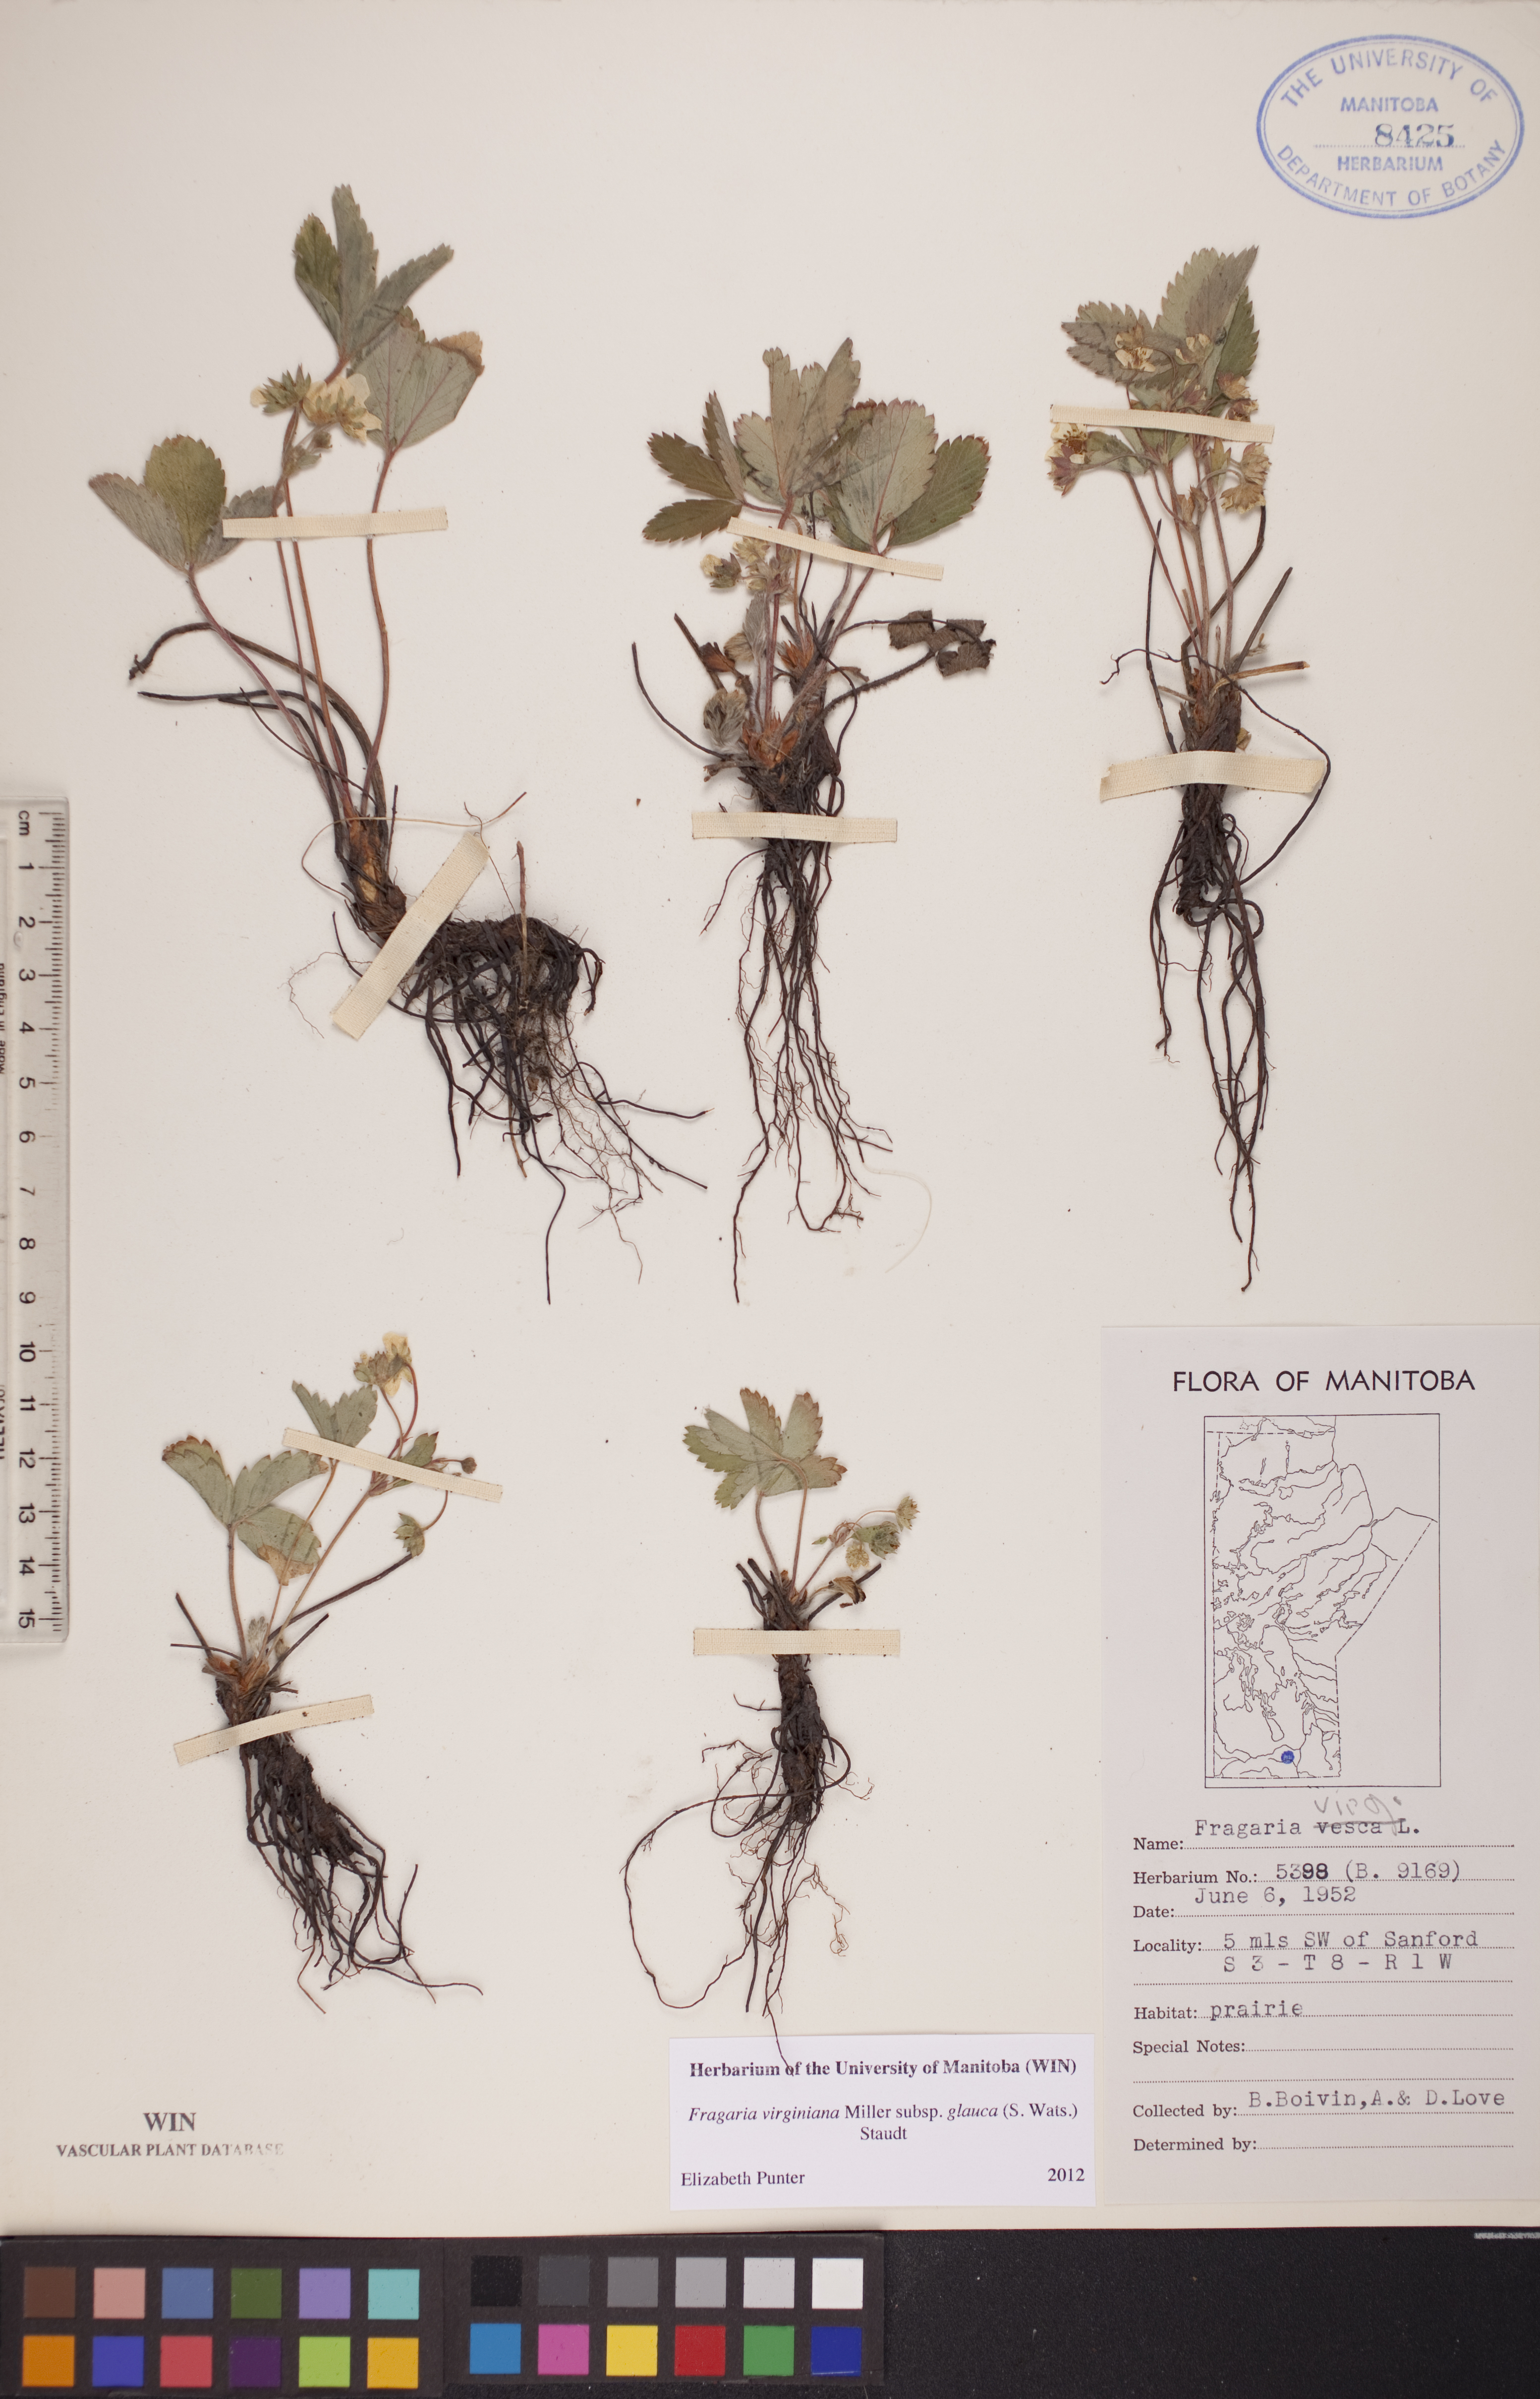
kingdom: Plantae
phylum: Tracheophyta
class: Magnoliopsida
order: Rosales
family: Rosaceae
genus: Fragaria
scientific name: Fragaria virginiana
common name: Thickleaved wild strawberry
